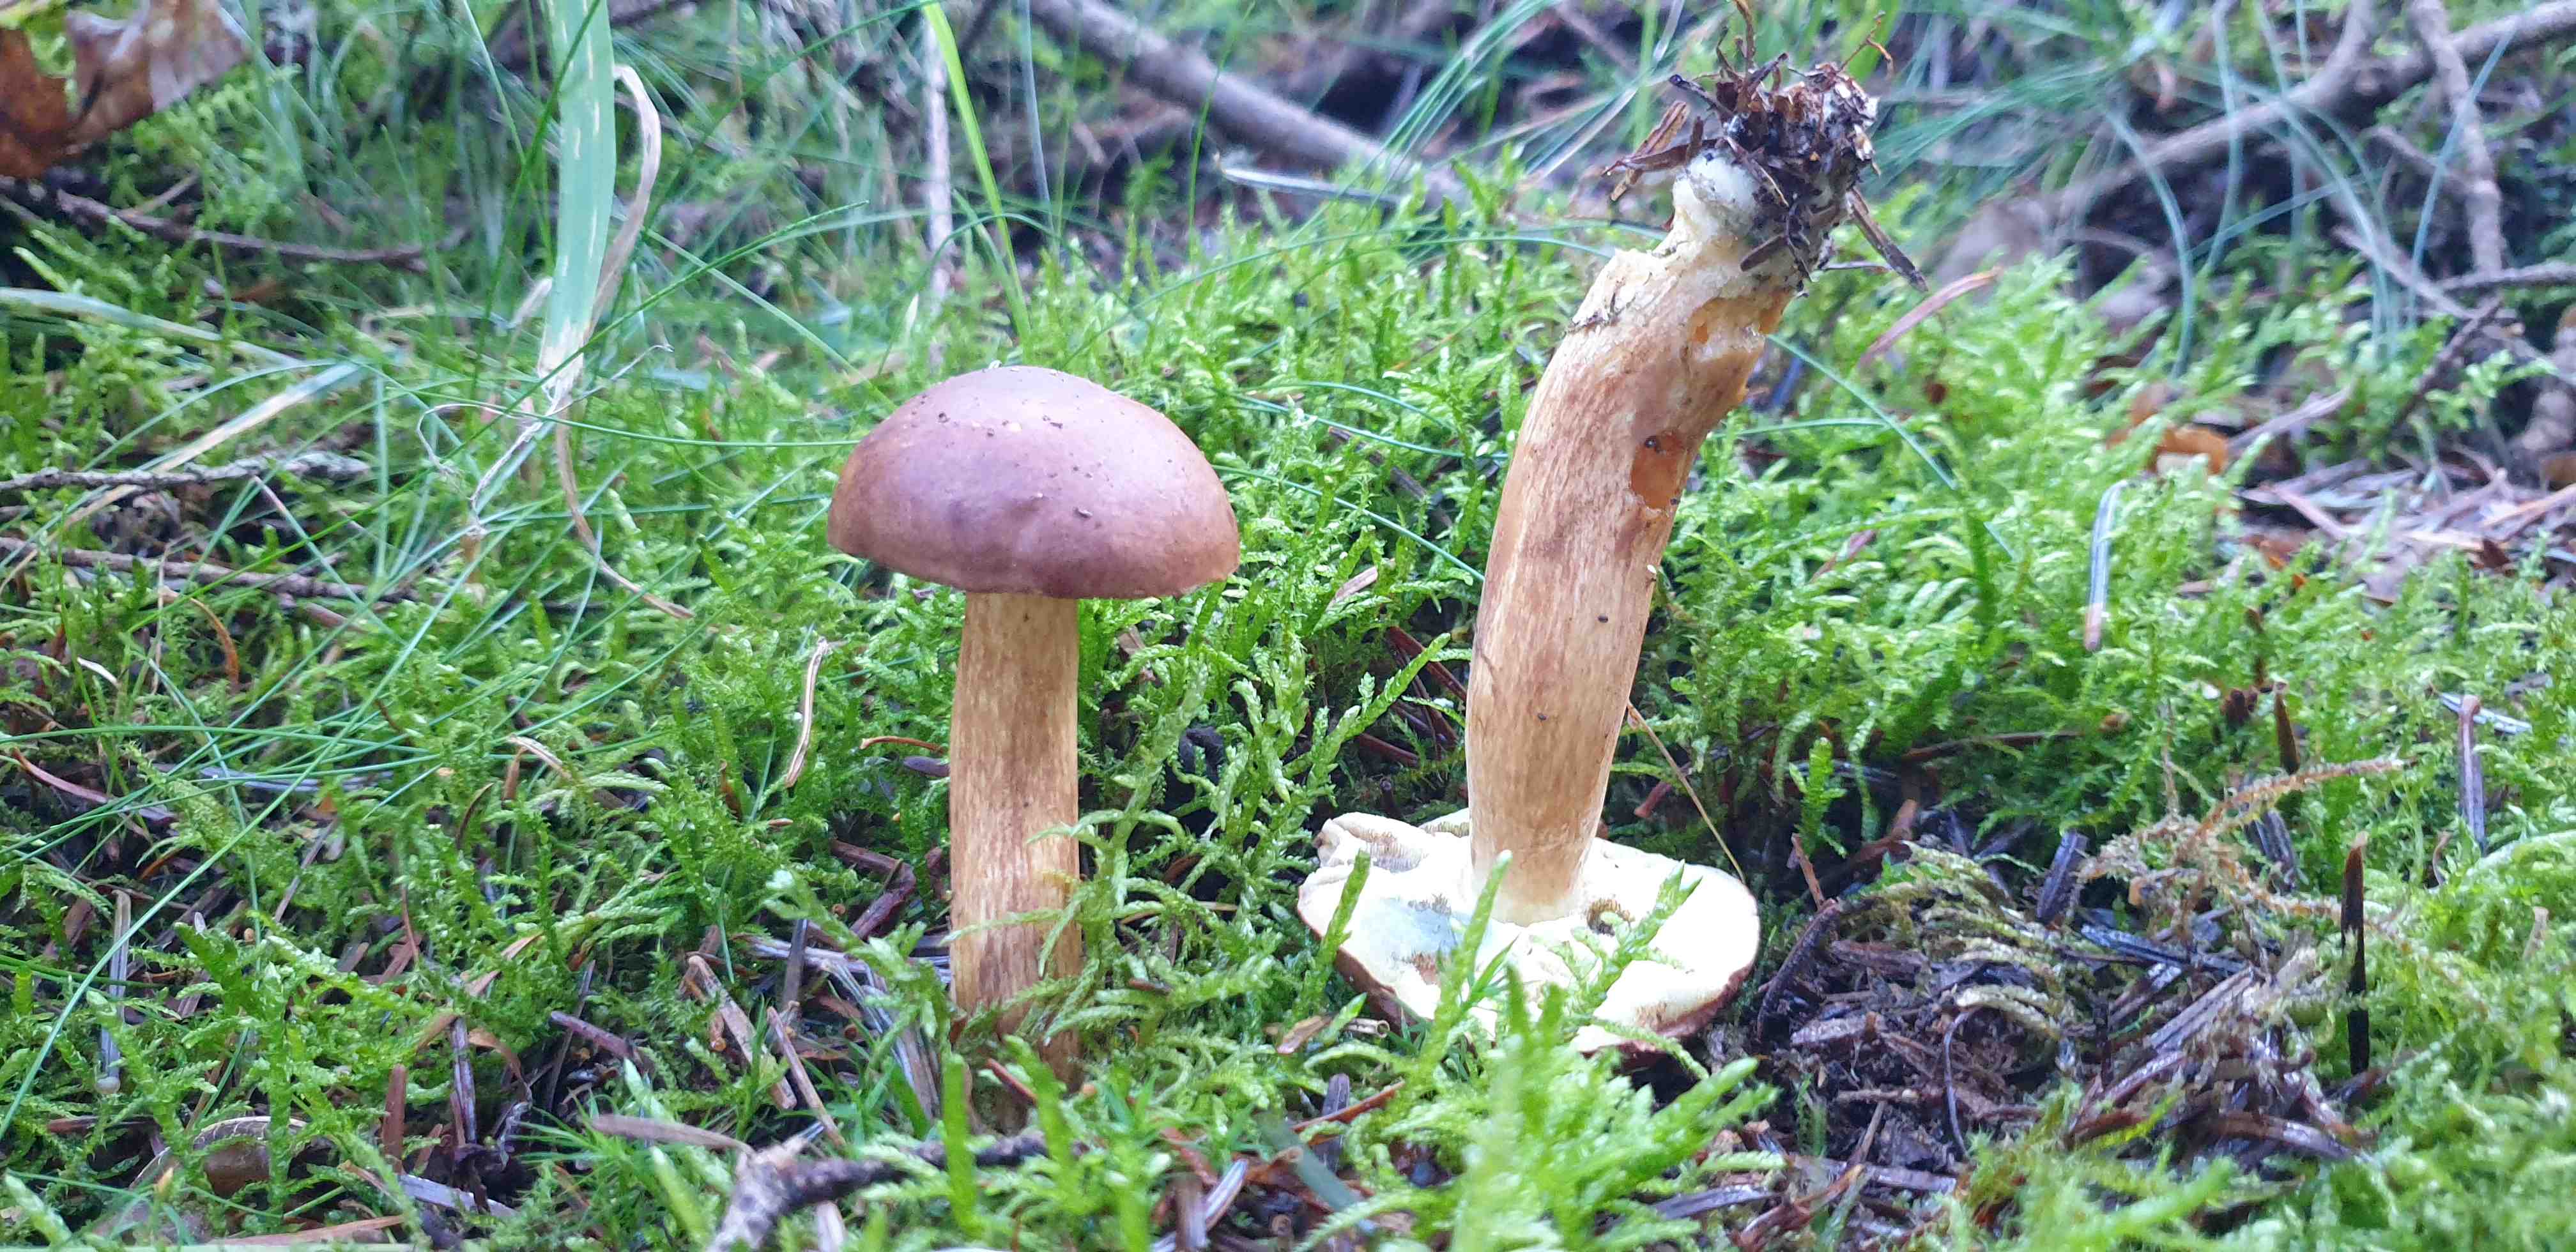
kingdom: Fungi
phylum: Basidiomycota
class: Agaricomycetes
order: Boletales
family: Boletaceae
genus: Imleria
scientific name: Imleria badia
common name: brunstokket rørhat
